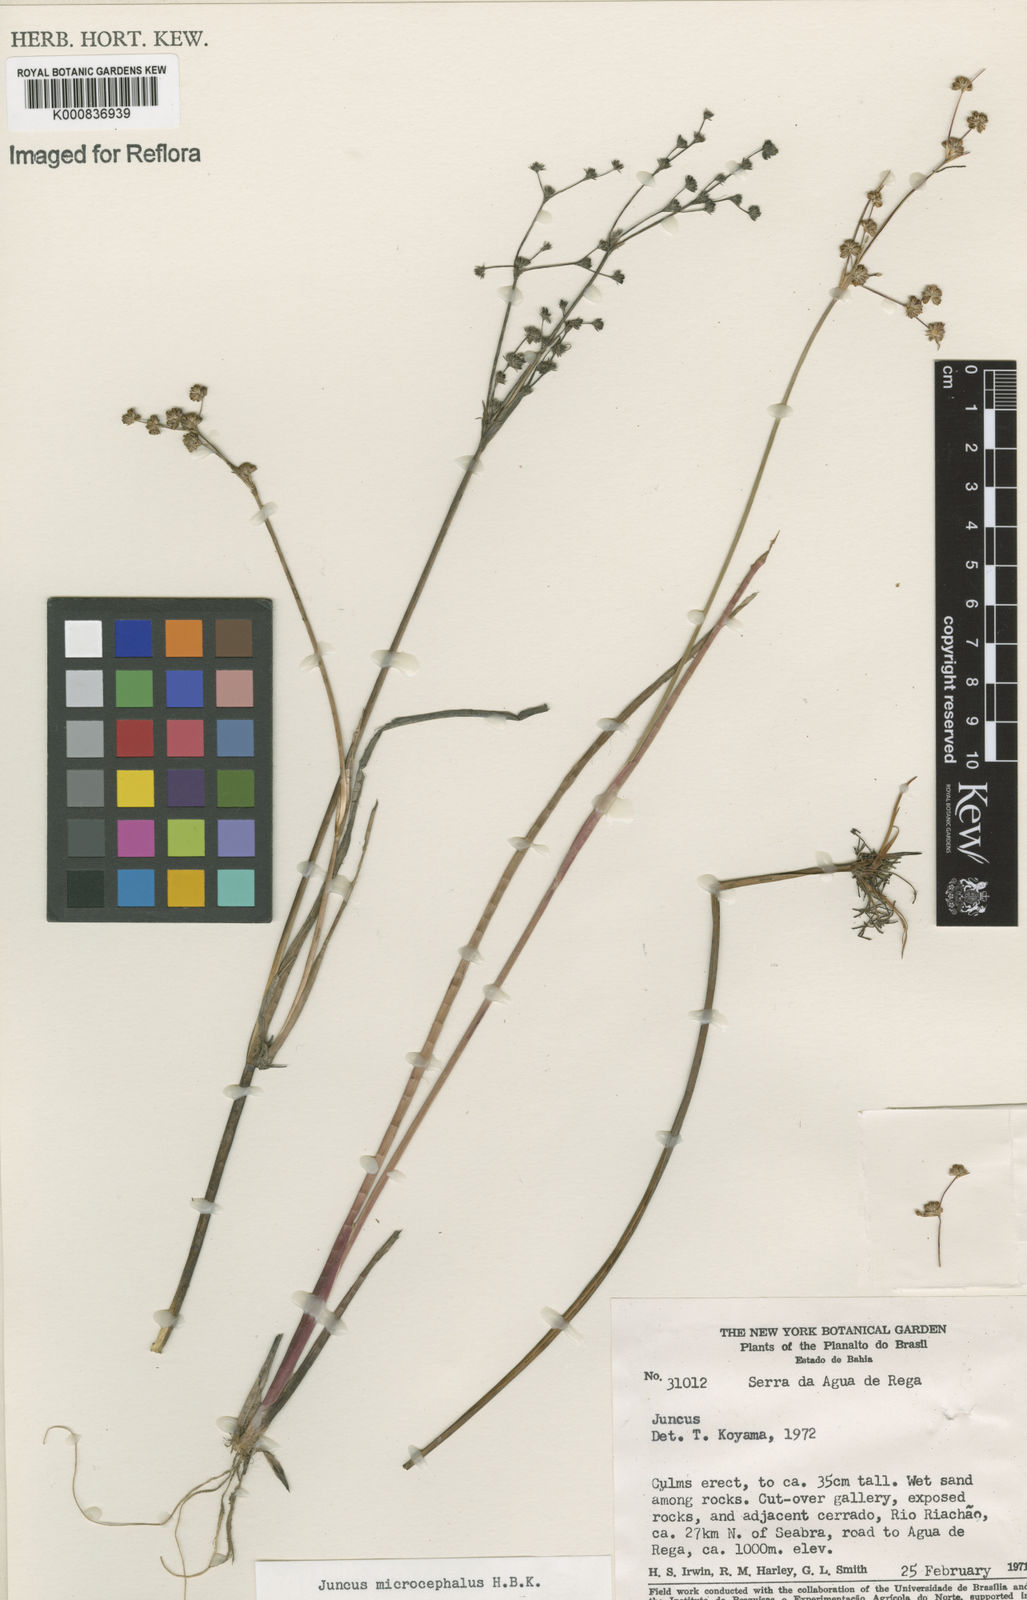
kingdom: Plantae
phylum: Tracheophyta
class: Liliopsida
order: Poales
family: Juncaceae
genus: Juncus
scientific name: Juncus microcephalus
